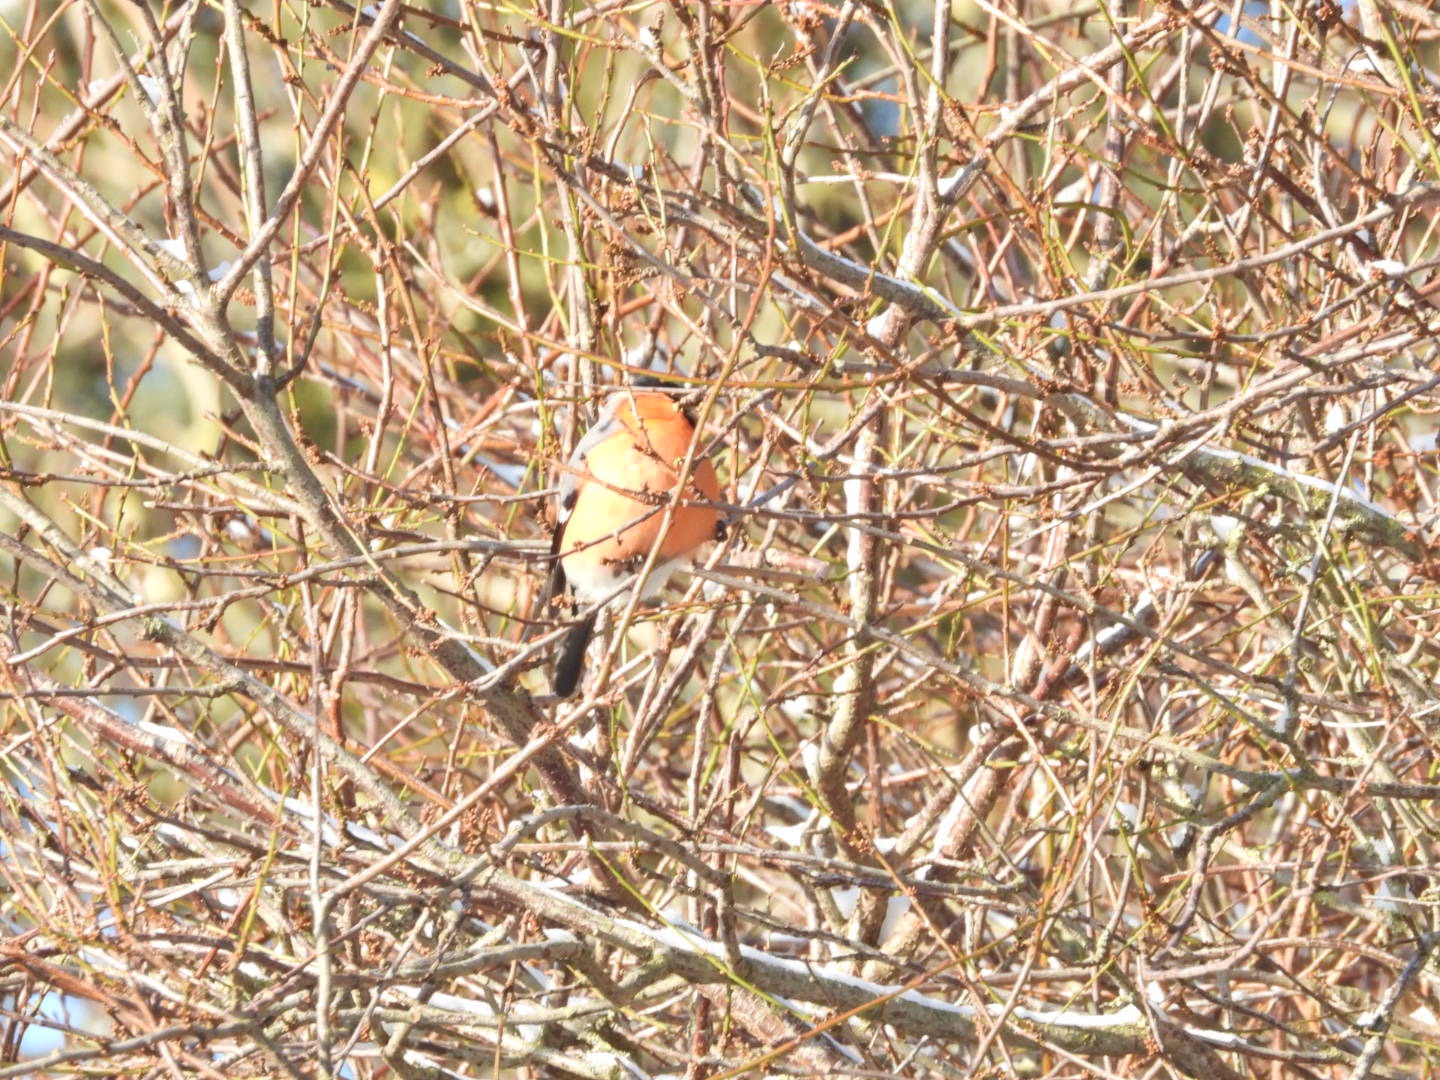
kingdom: Animalia
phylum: Chordata
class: Aves
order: Passeriformes
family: Fringillidae
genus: Pyrrhula
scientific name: Pyrrhula pyrrhula
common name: Dompap
